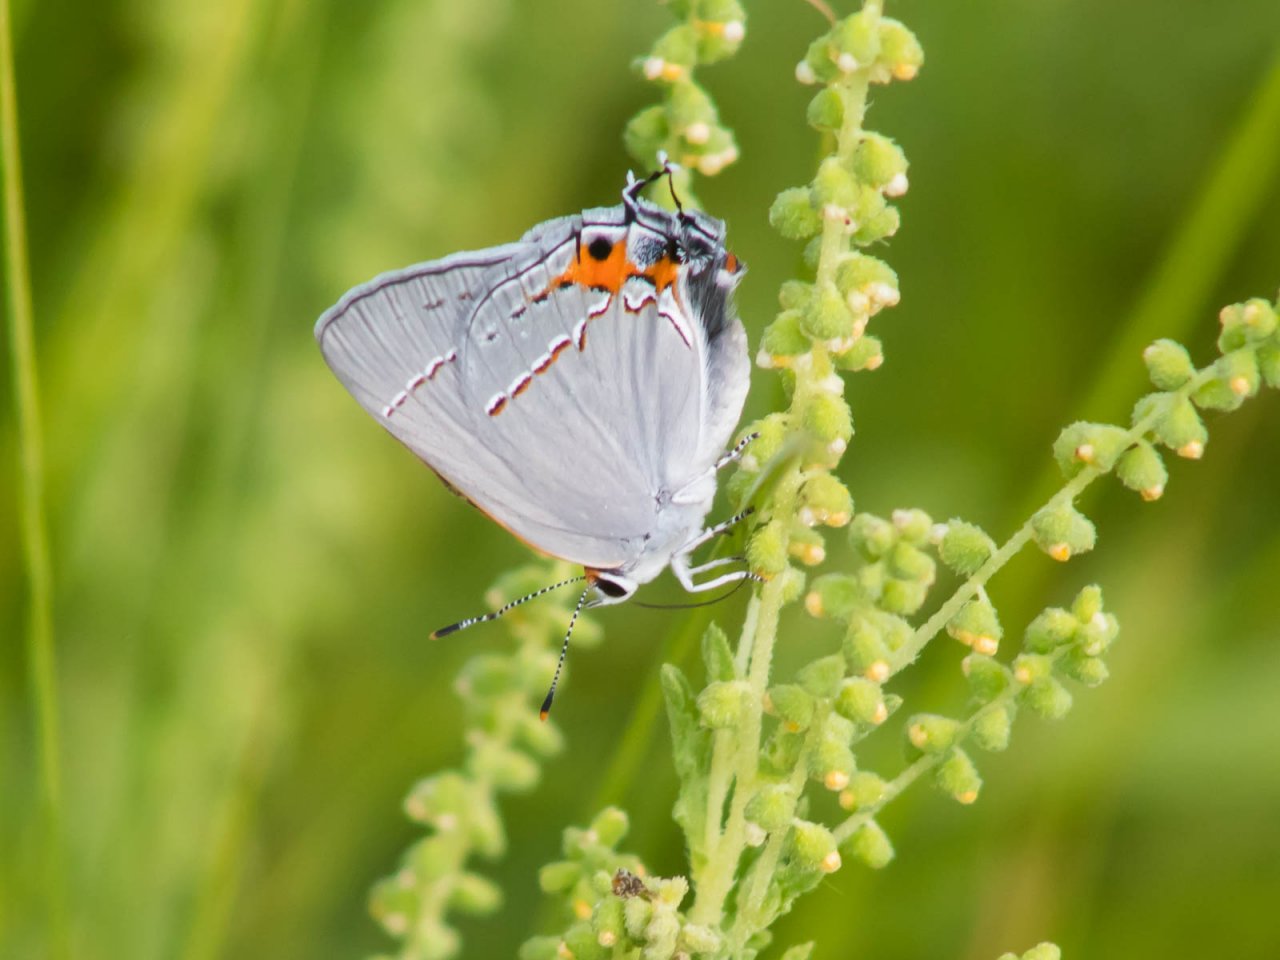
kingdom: Animalia
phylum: Arthropoda
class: Insecta
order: Lepidoptera
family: Lycaenidae
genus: Strymon
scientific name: Strymon melinus
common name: Gray Hairstreak
